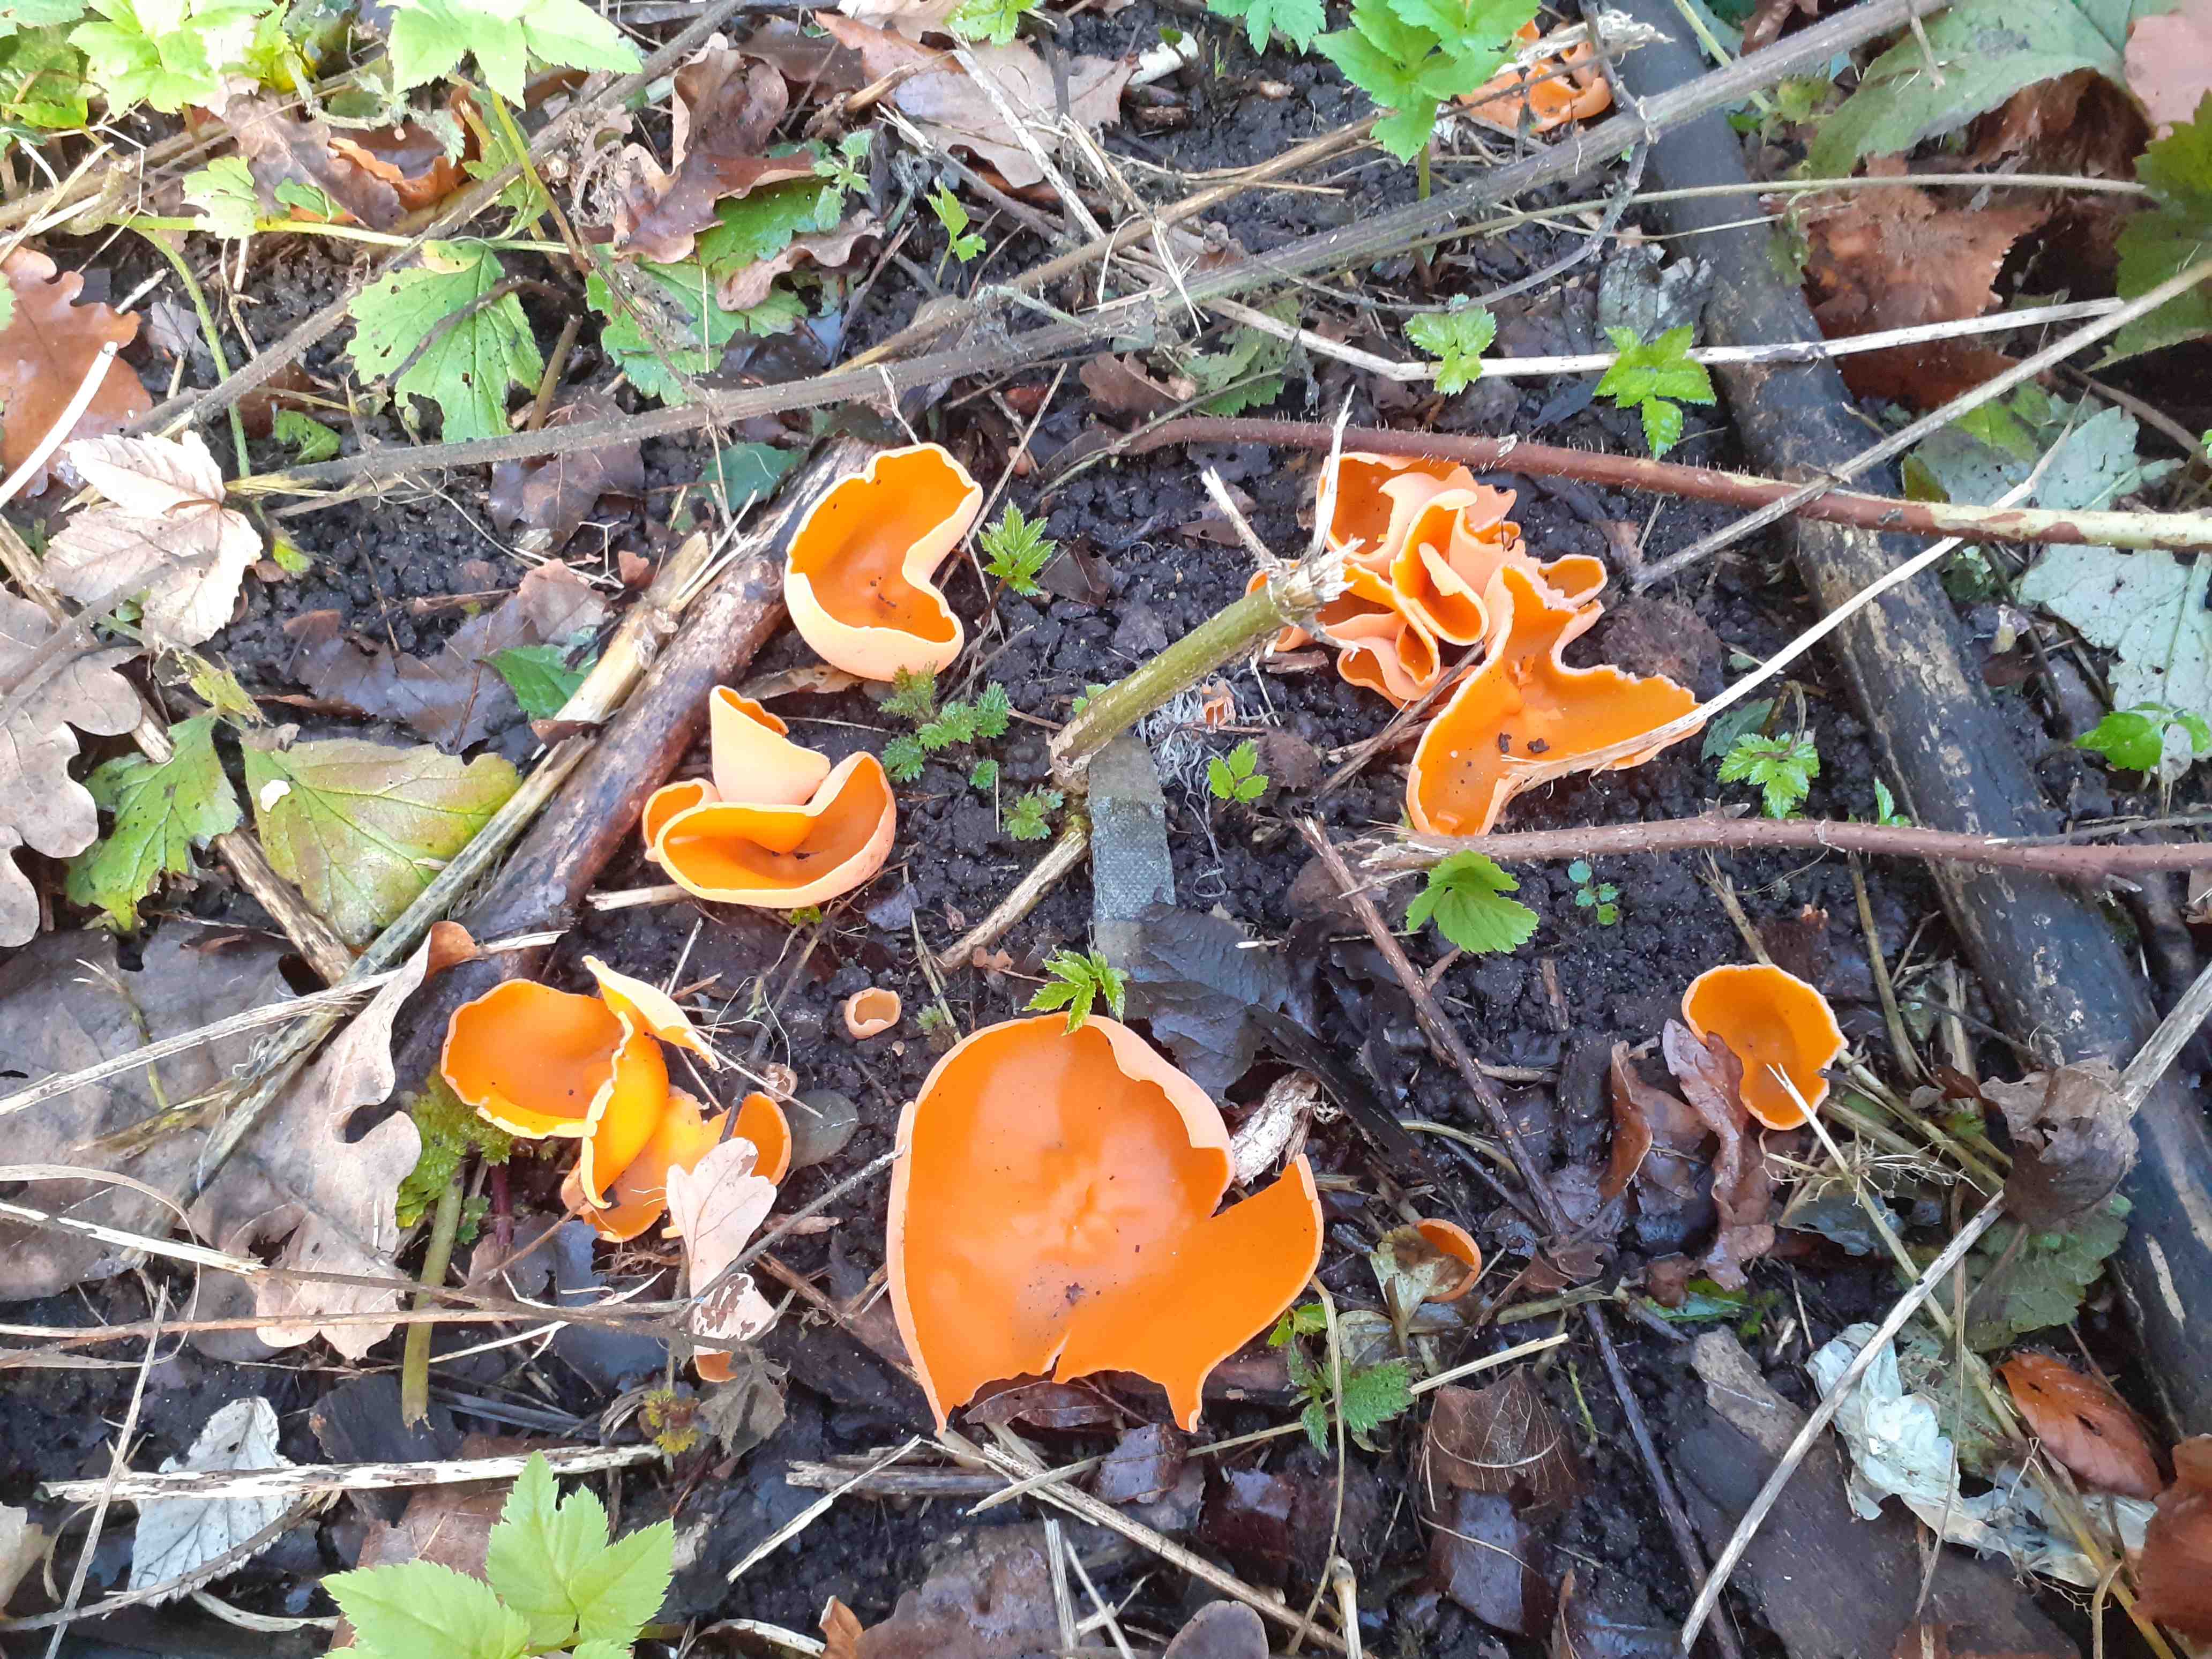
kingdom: Fungi
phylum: Ascomycota
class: Pezizomycetes
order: Pezizales
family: Pyronemataceae
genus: Aleuria
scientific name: Aleuria aurantia
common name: almindelig orangebæger
